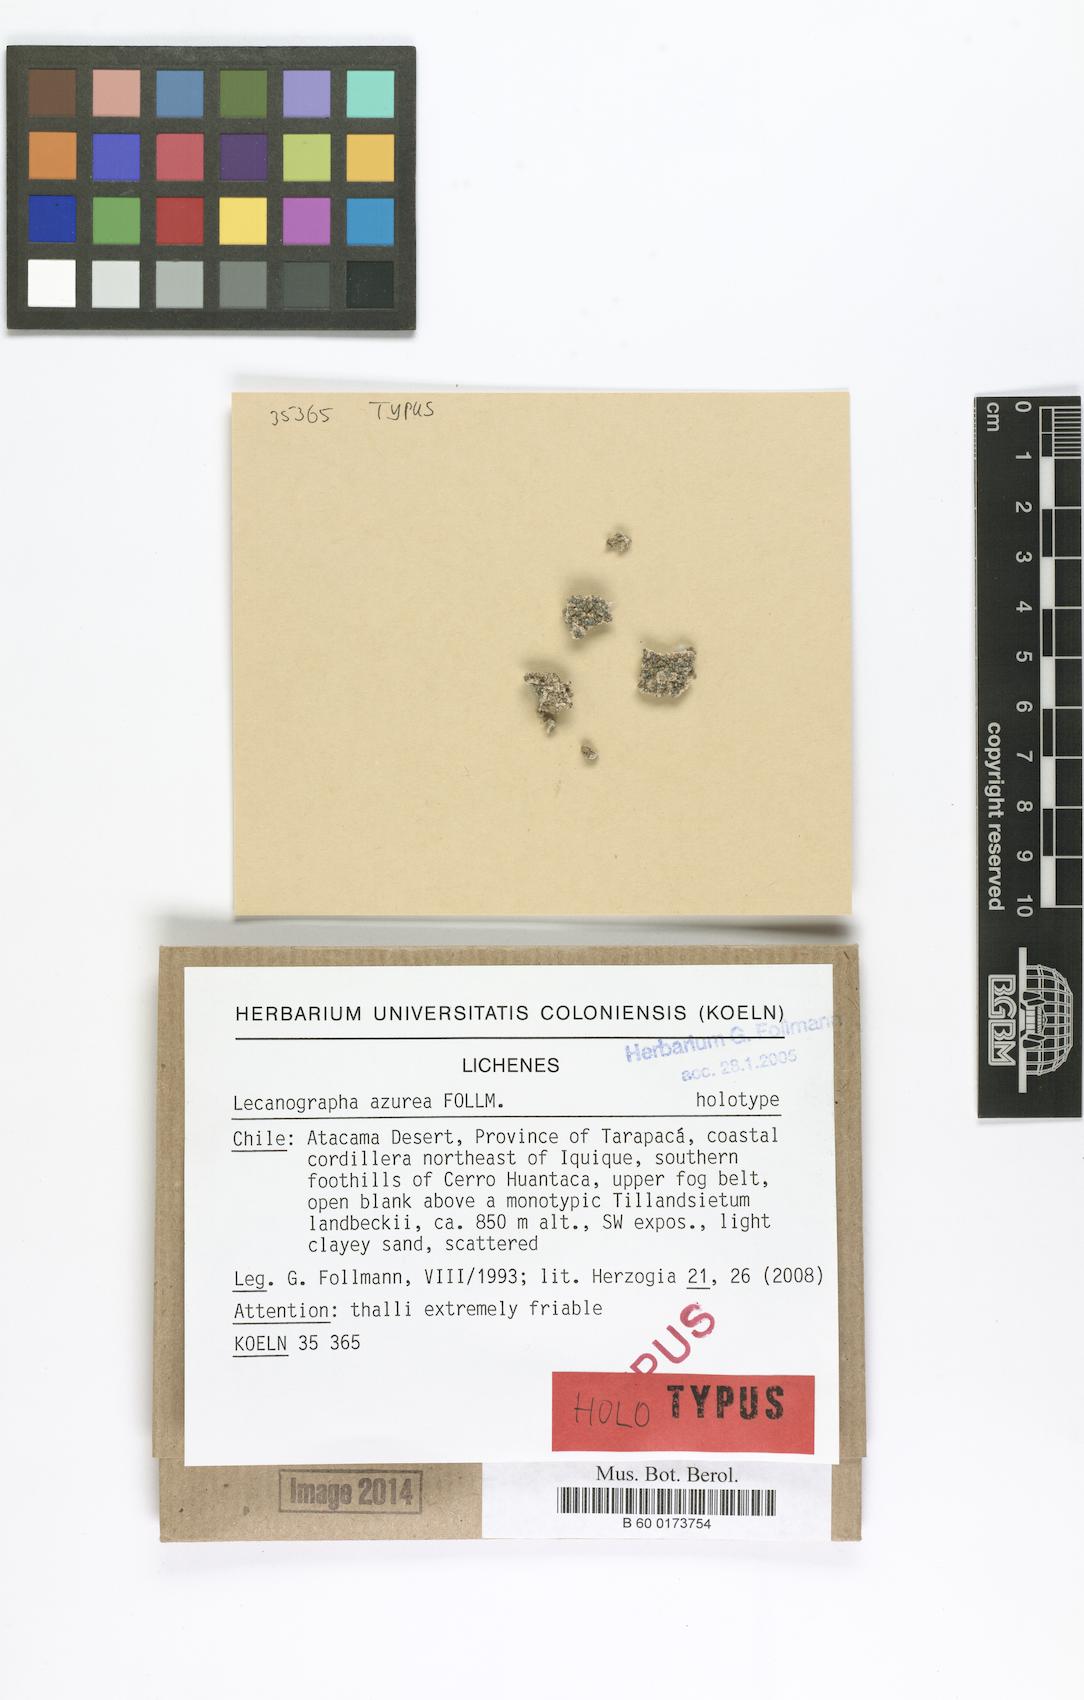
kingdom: Fungi
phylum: Ascomycota
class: Arthoniomycetes
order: Arthoniales
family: Lecanographaceae
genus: Lecanographa
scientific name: Lecanographa azurea
